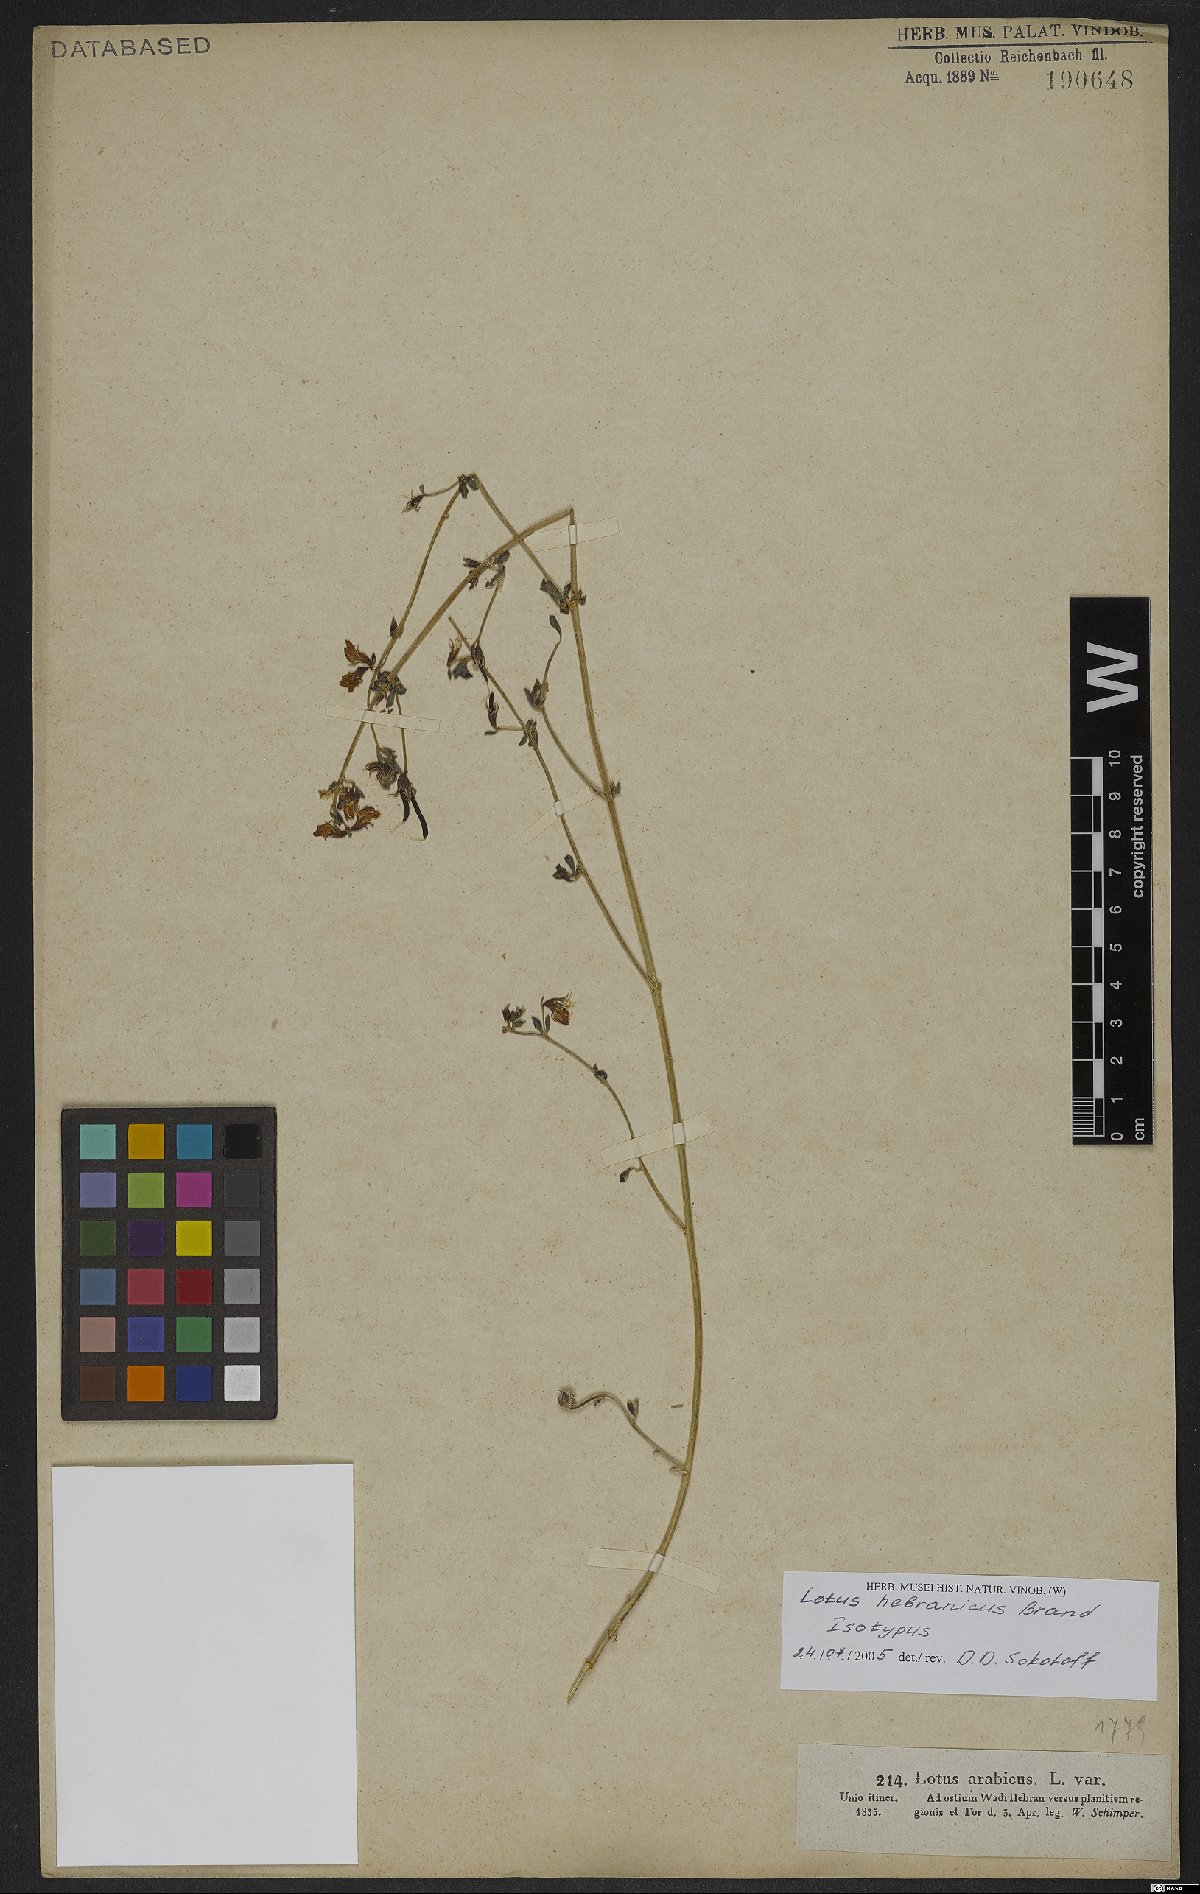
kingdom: Plantae
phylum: Tracheophyta
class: Magnoliopsida
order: Fabales
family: Fabaceae
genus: Lotus
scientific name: Lotus hebranicus
